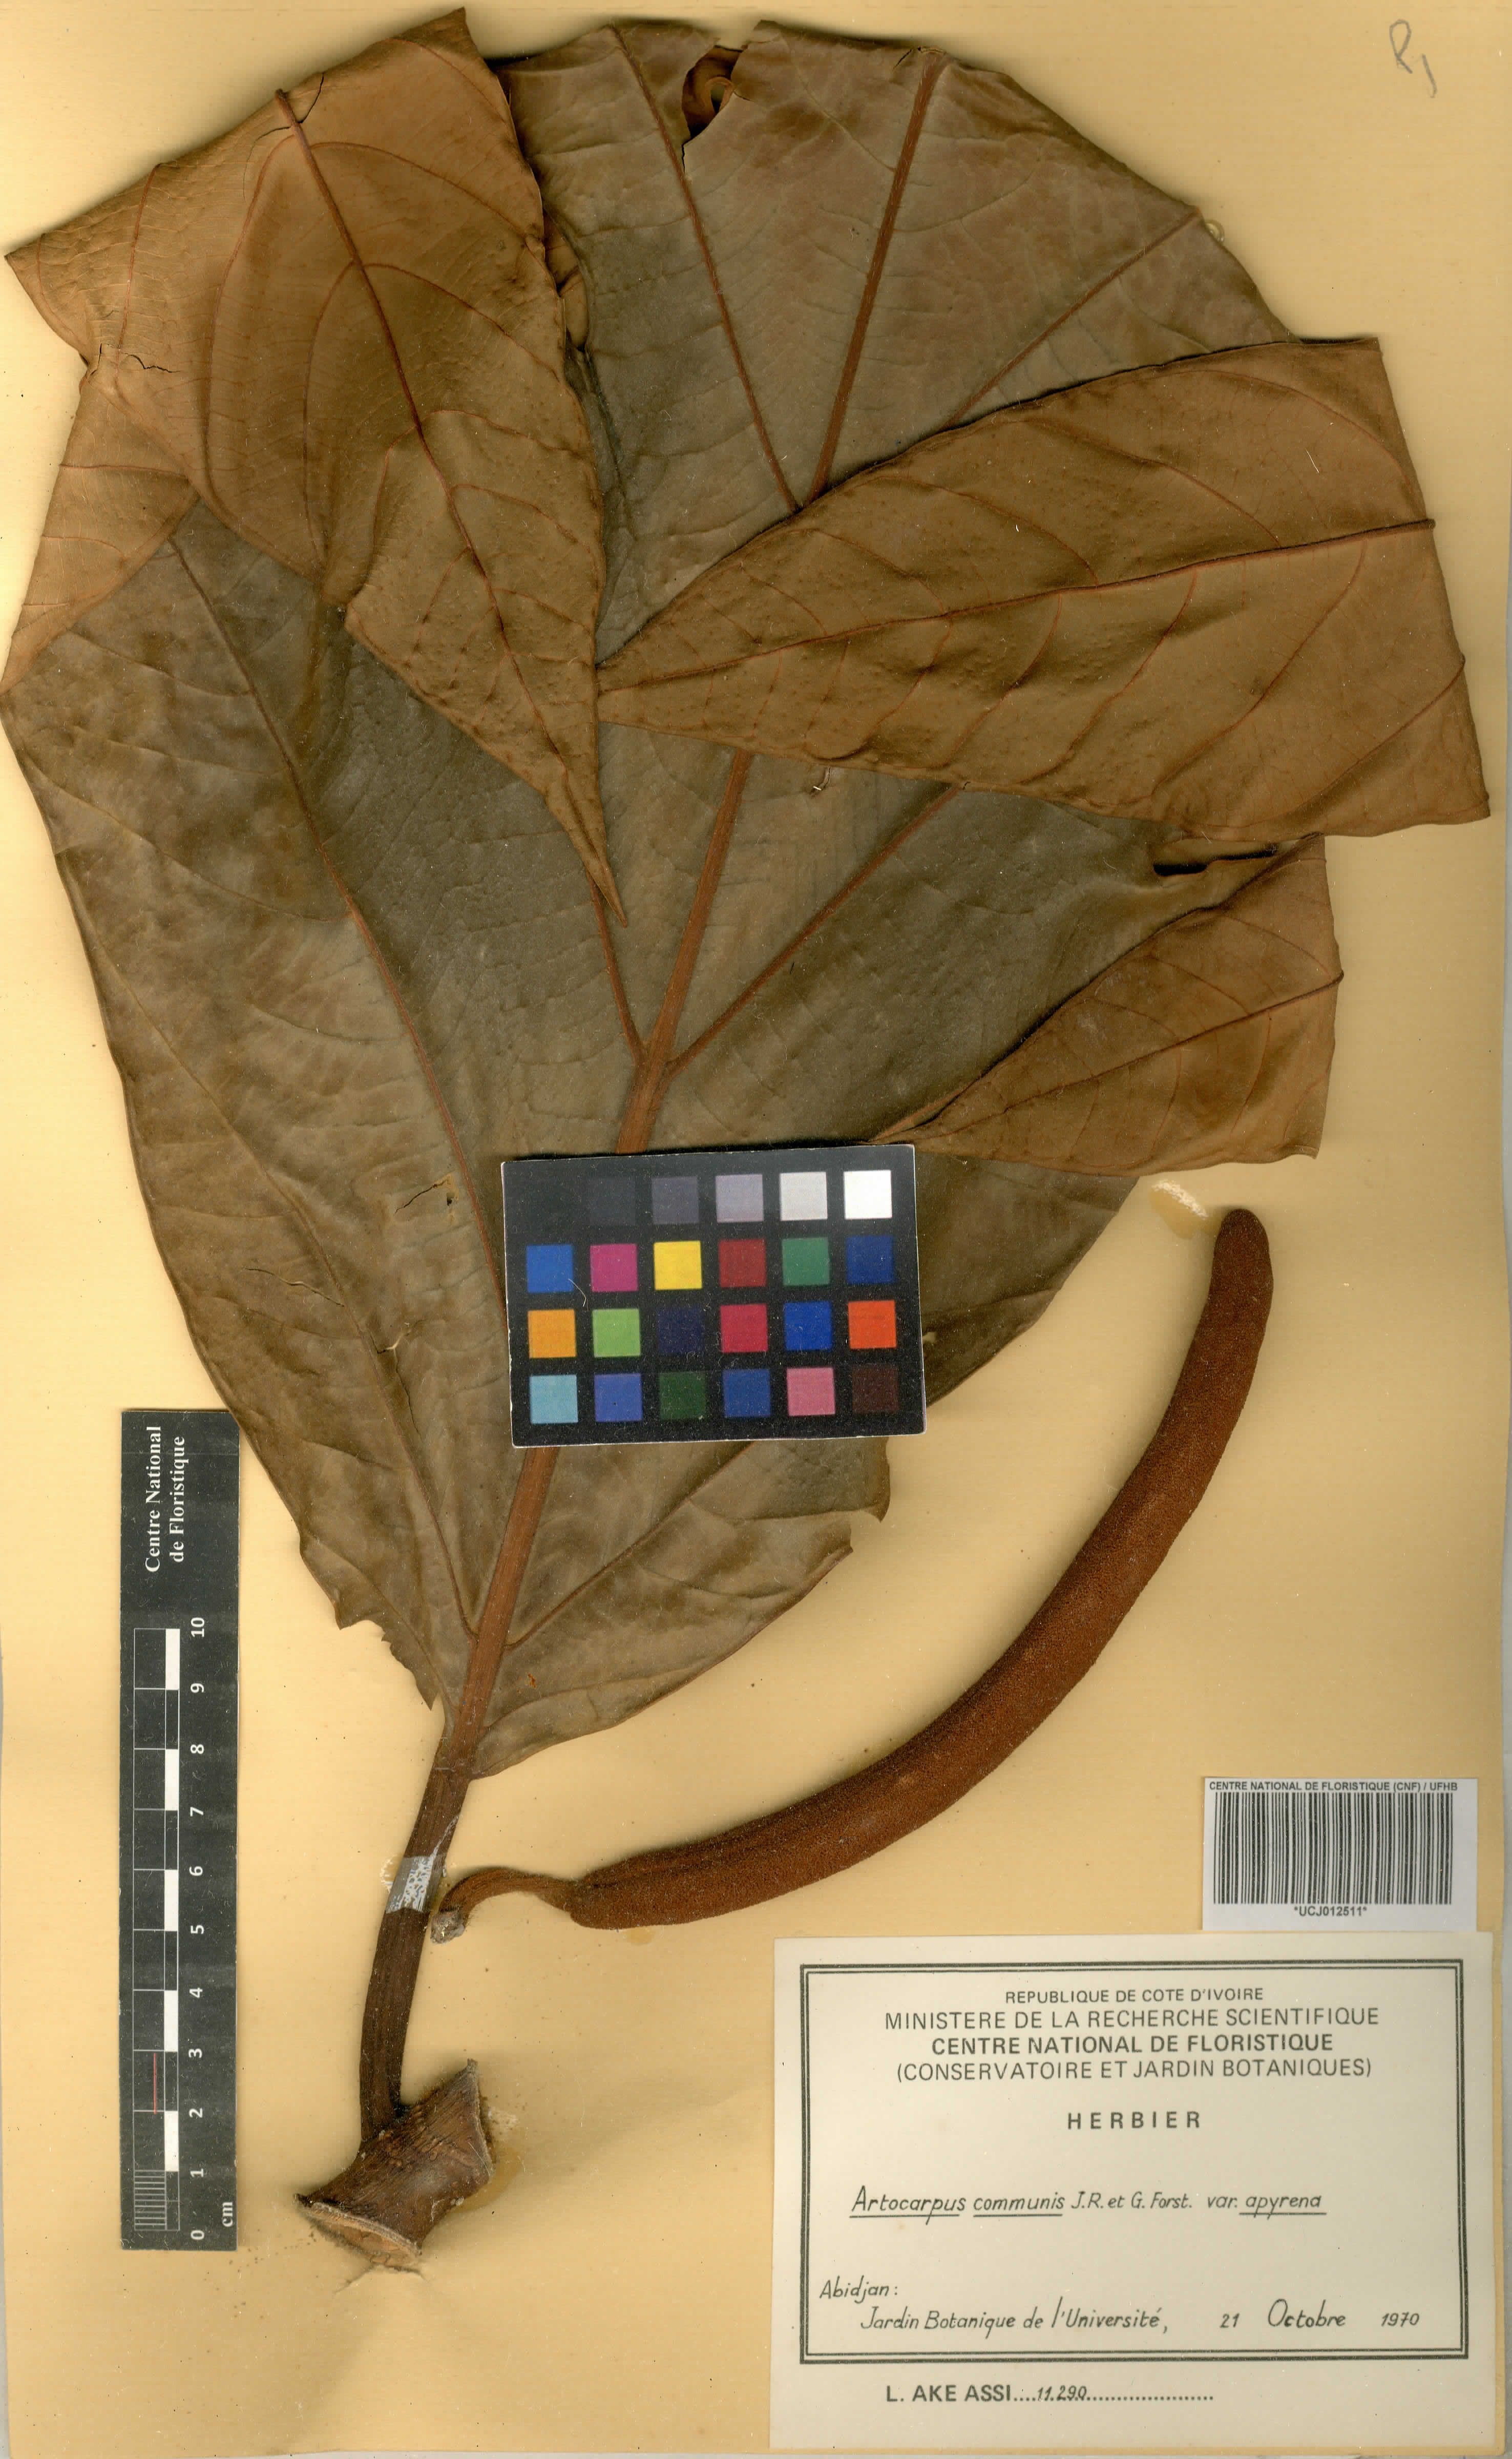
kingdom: Plantae
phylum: Tracheophyta
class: Magnoliopsida
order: Rosales
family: Moraceae
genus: Artocarpus
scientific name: Artocarpus altilis
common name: Breadfruit
